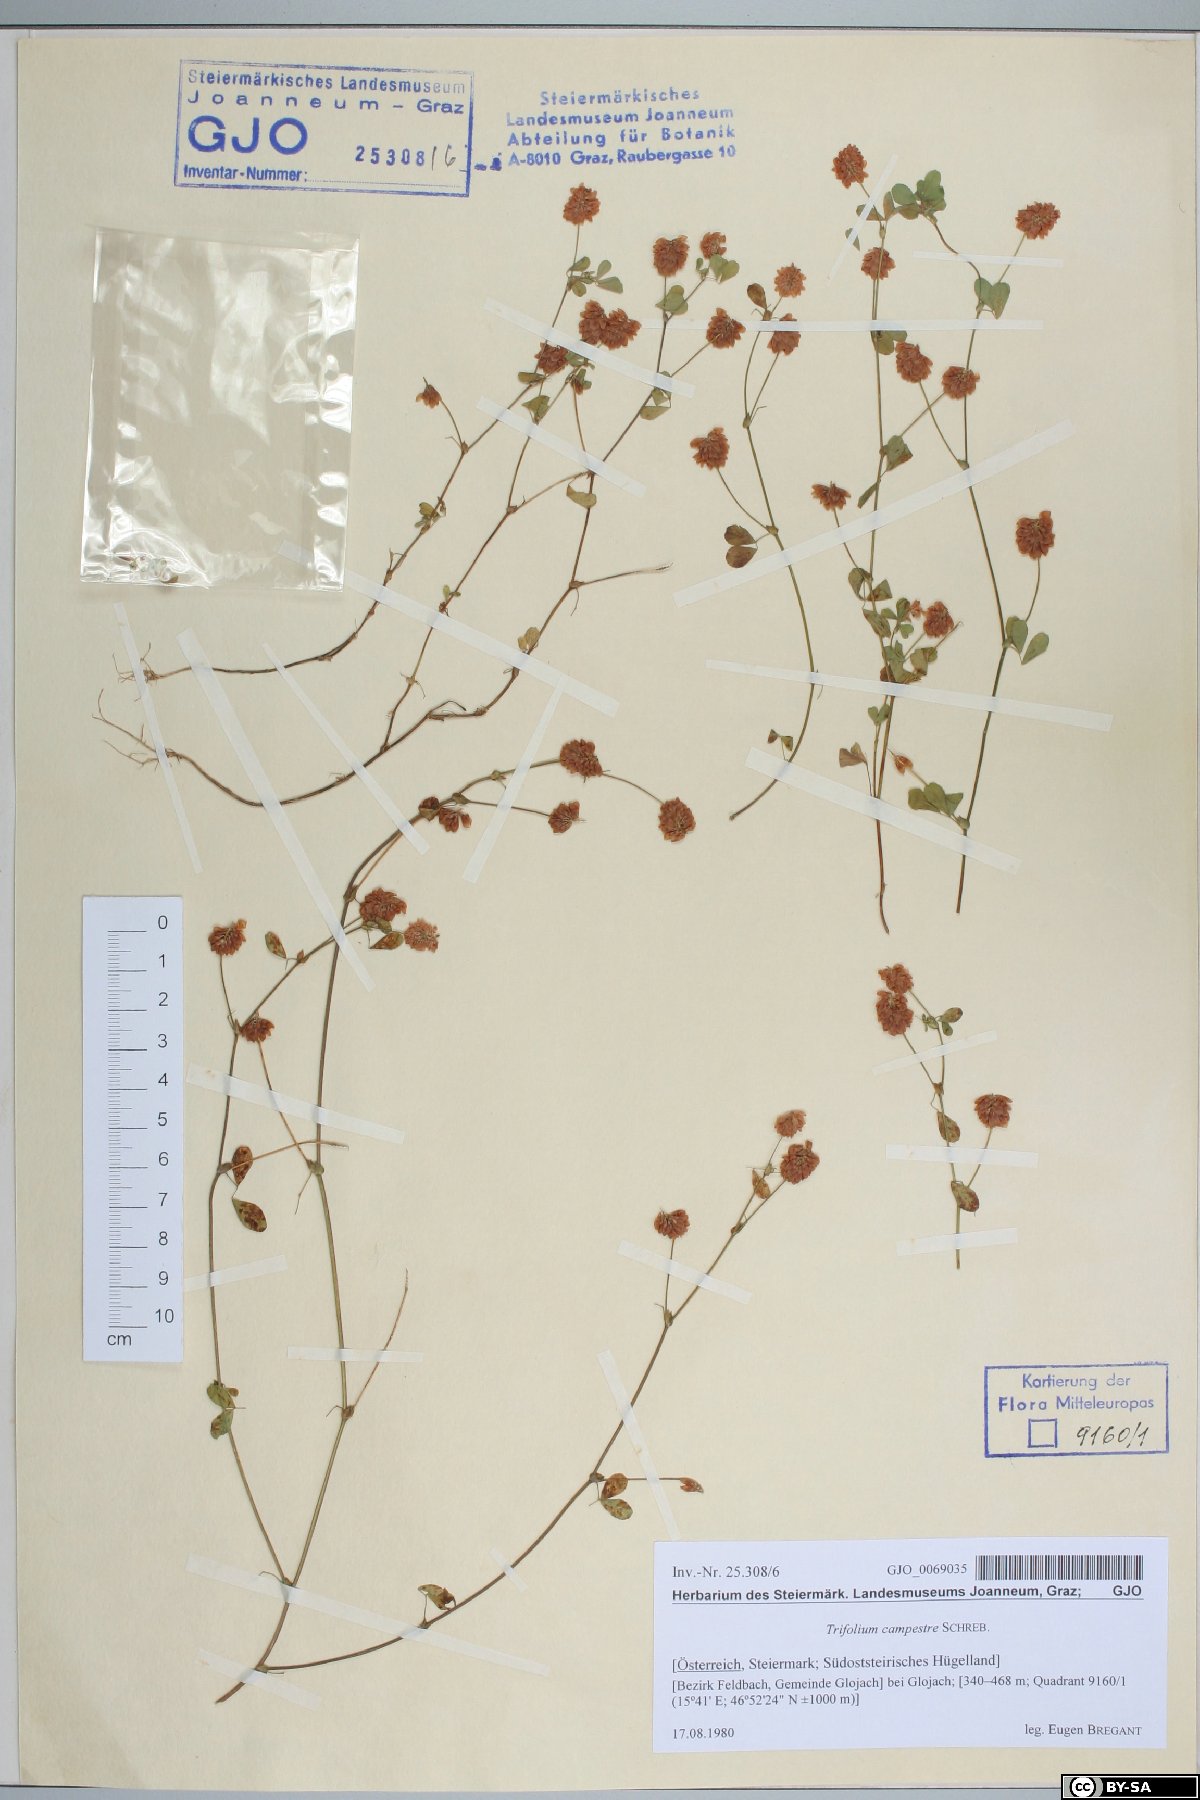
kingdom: Plantae
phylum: Tracheophyta
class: Magnoliopsida
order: Fabales
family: Fabaceae
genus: Trifolium
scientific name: Trifolium campestre
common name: Field clover
